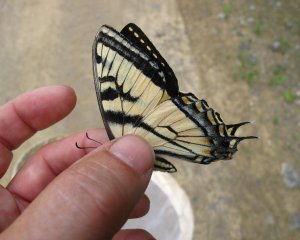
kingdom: Animalia
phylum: Arthropoda
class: Insecta
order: Lepidoptera
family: Papilionidae
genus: Pterourus
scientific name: Pterourus canadensis
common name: Canadian Tiger Swallowtail
